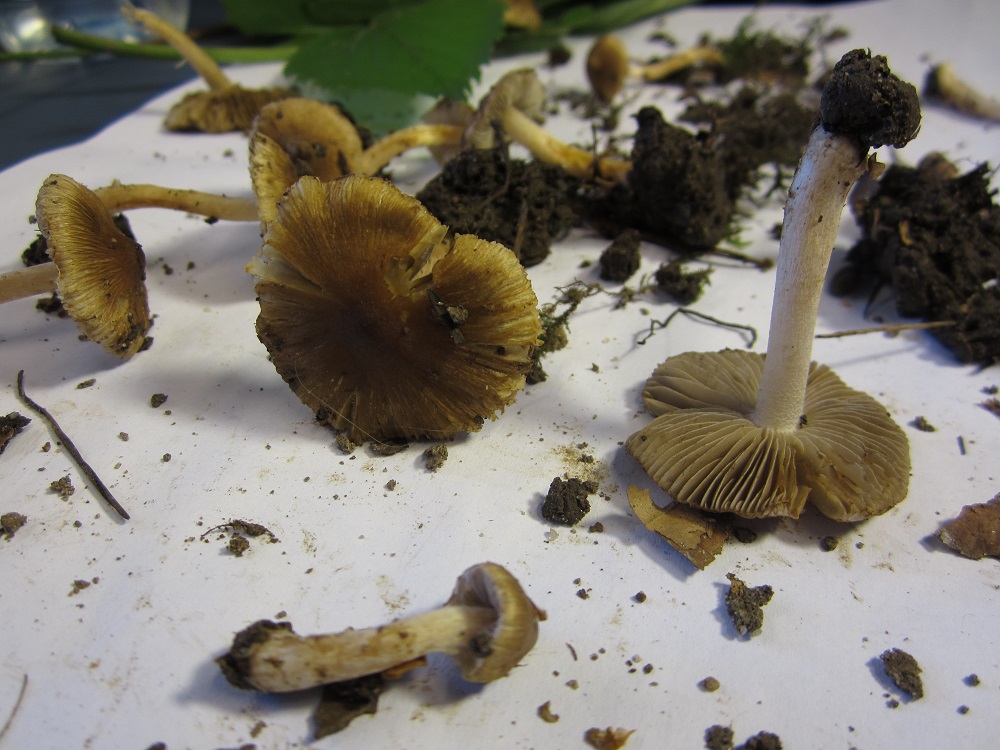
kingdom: Fungi
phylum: Basidiomycota
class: Agaricomycetes
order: Agaricales
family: Inocybaceae
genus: Inocybe
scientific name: Inocybe
